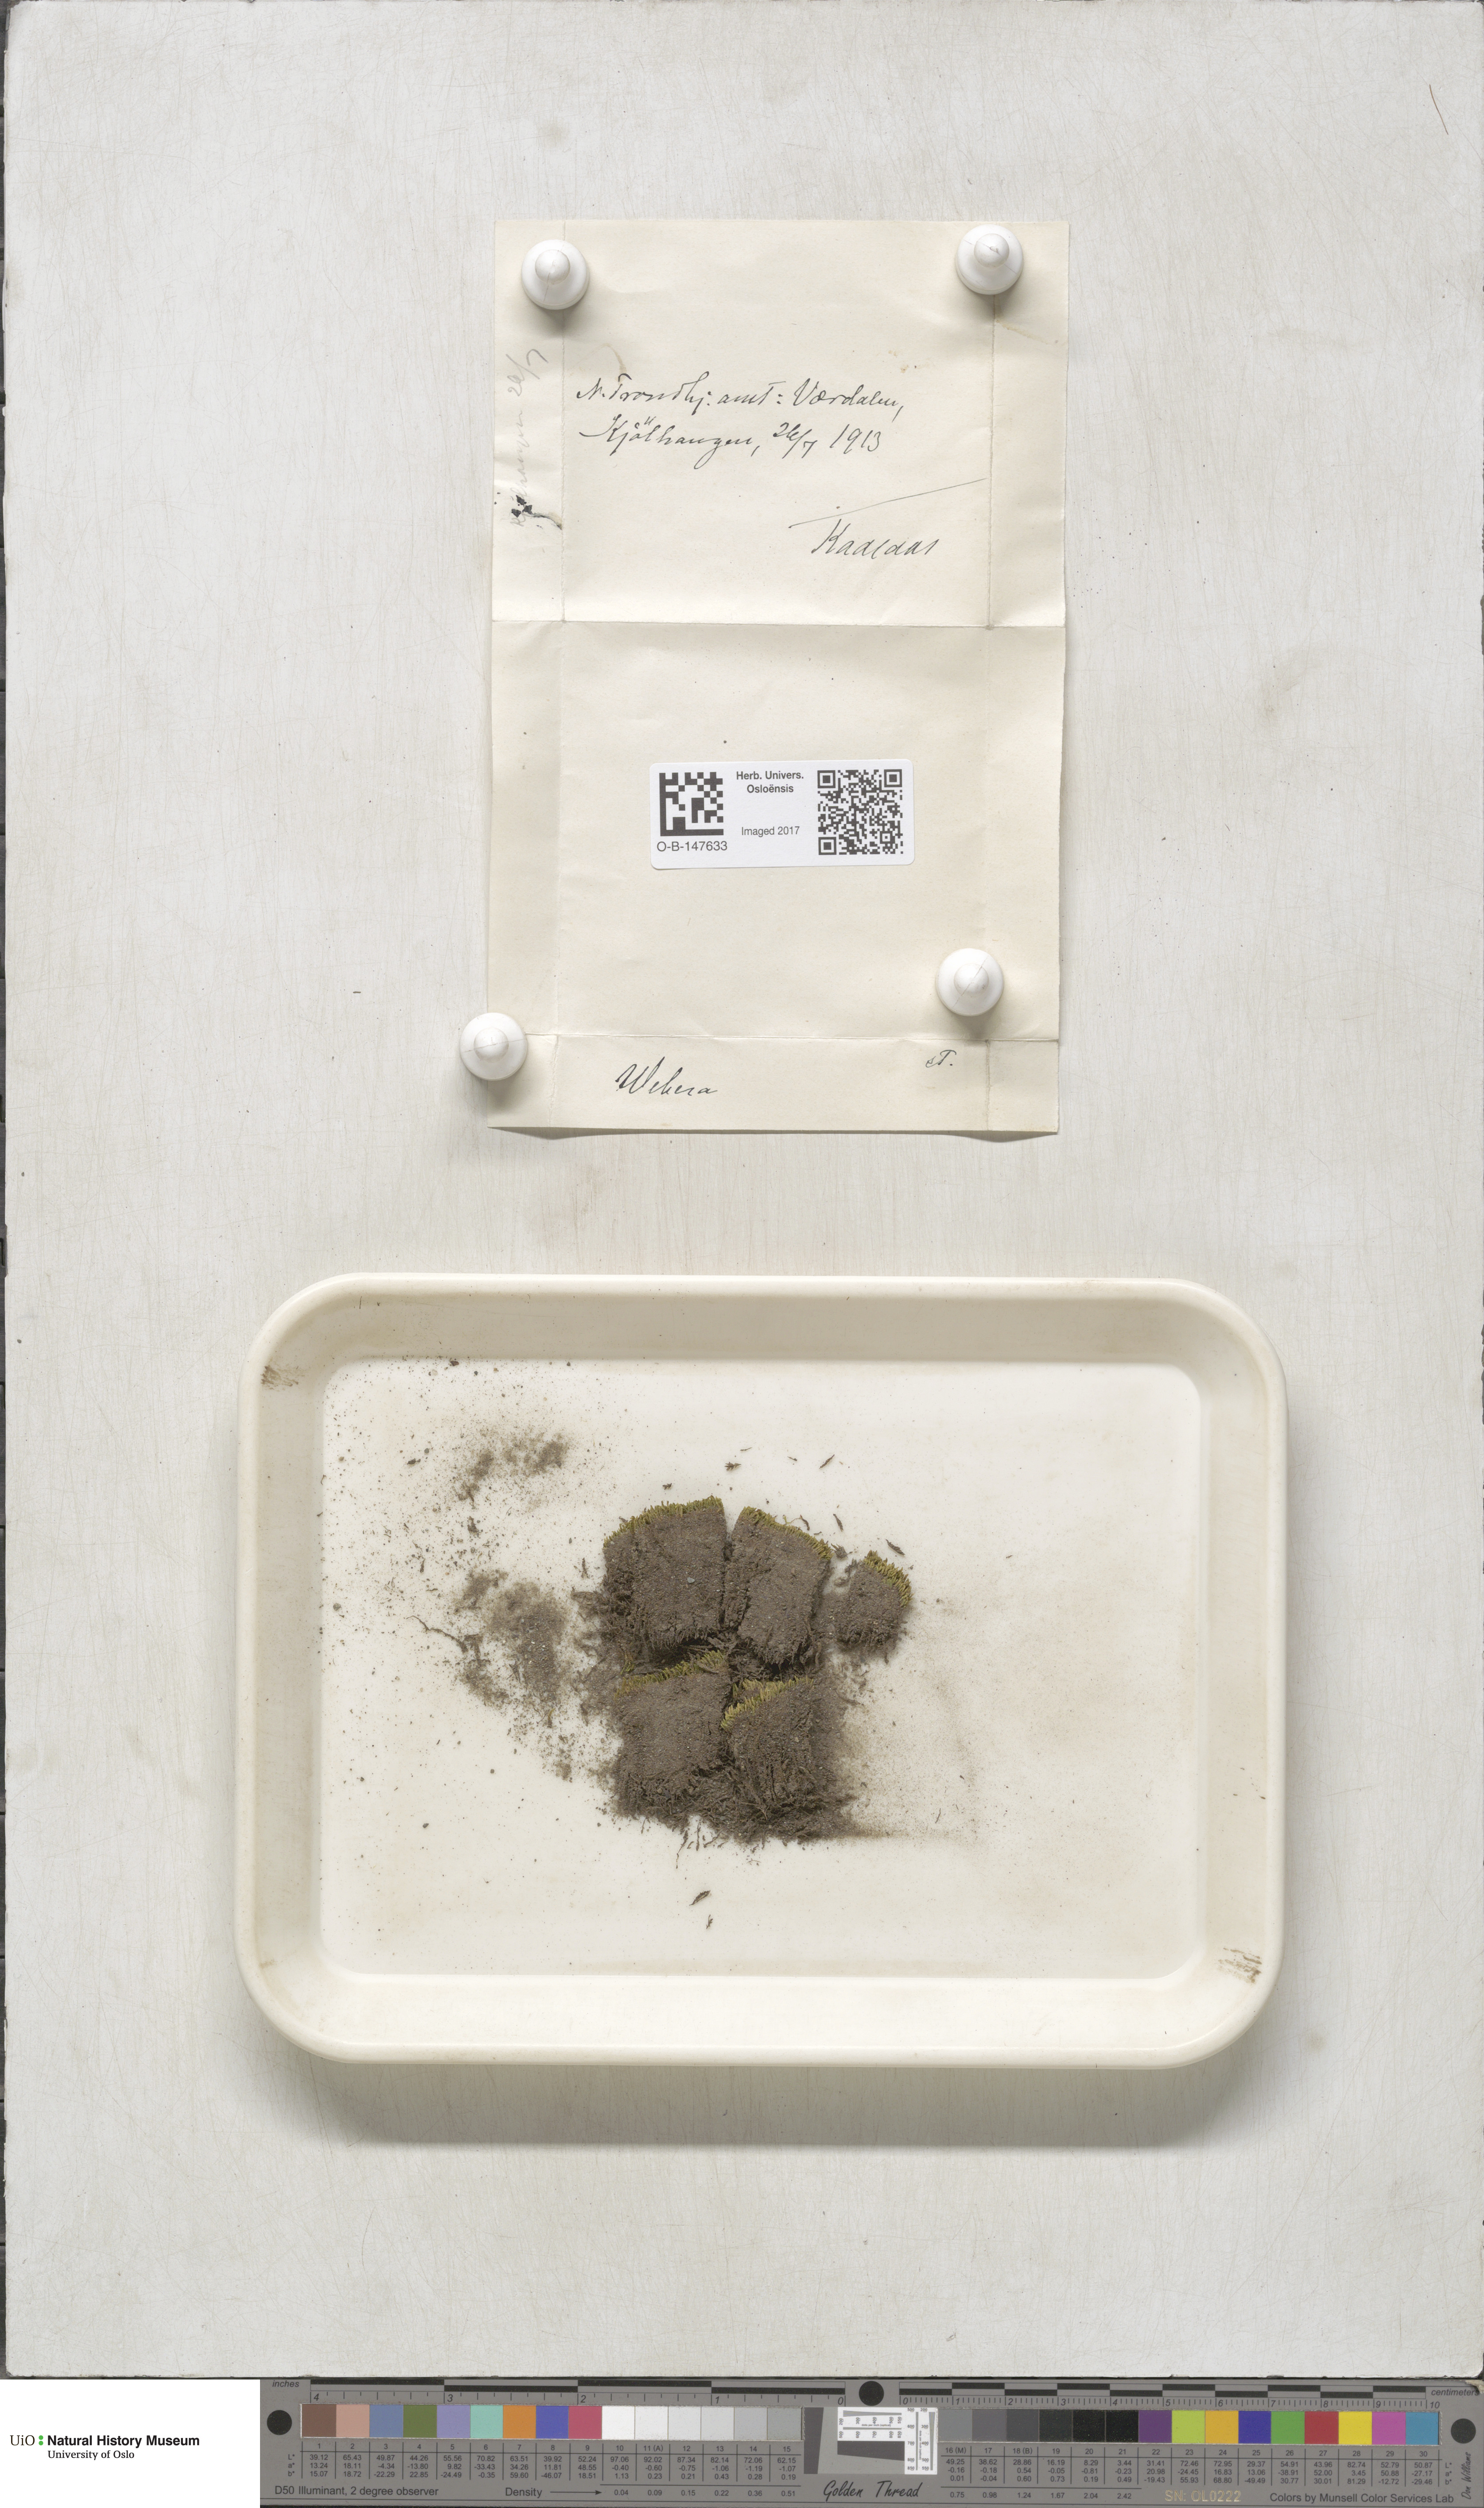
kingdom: Plantae
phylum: Bryophyta
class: Bryopsida
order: Bryales
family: Mniaceae
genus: Pohlia
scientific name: Pohlia
